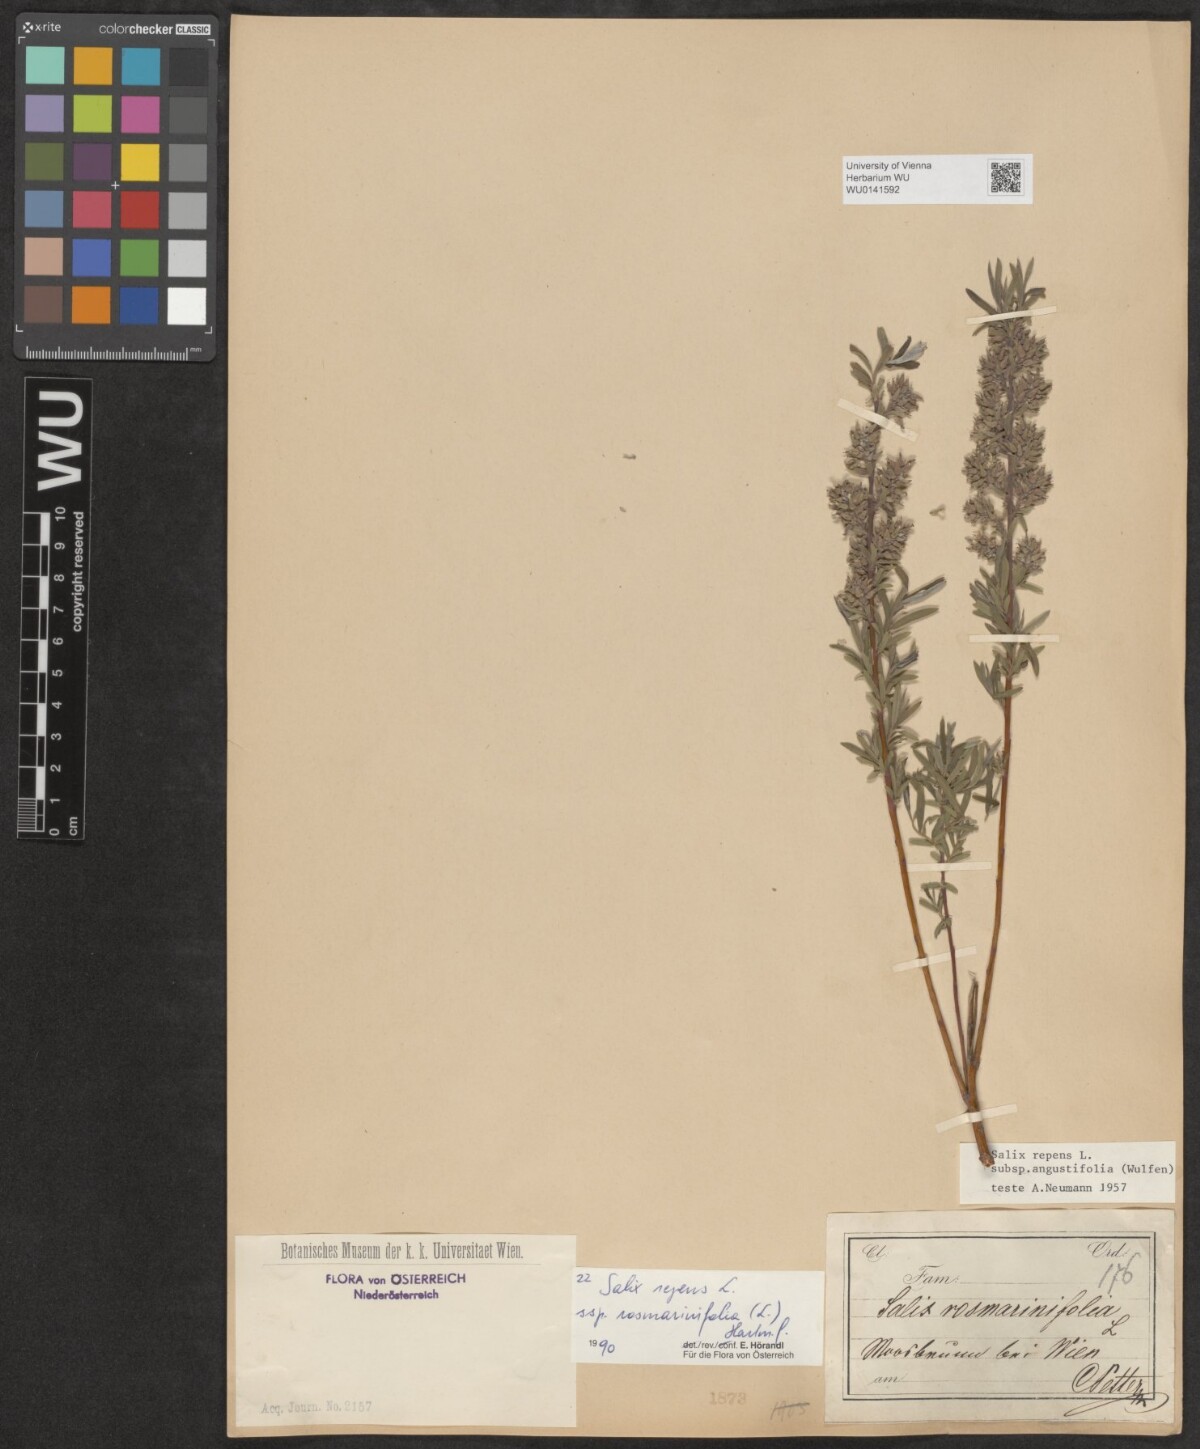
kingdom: Plantae
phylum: Tracheophyta
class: Magnoliopsida
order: Malpighiales
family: Salicaceae
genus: Salix
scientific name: Salix repens
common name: Creeping willow
